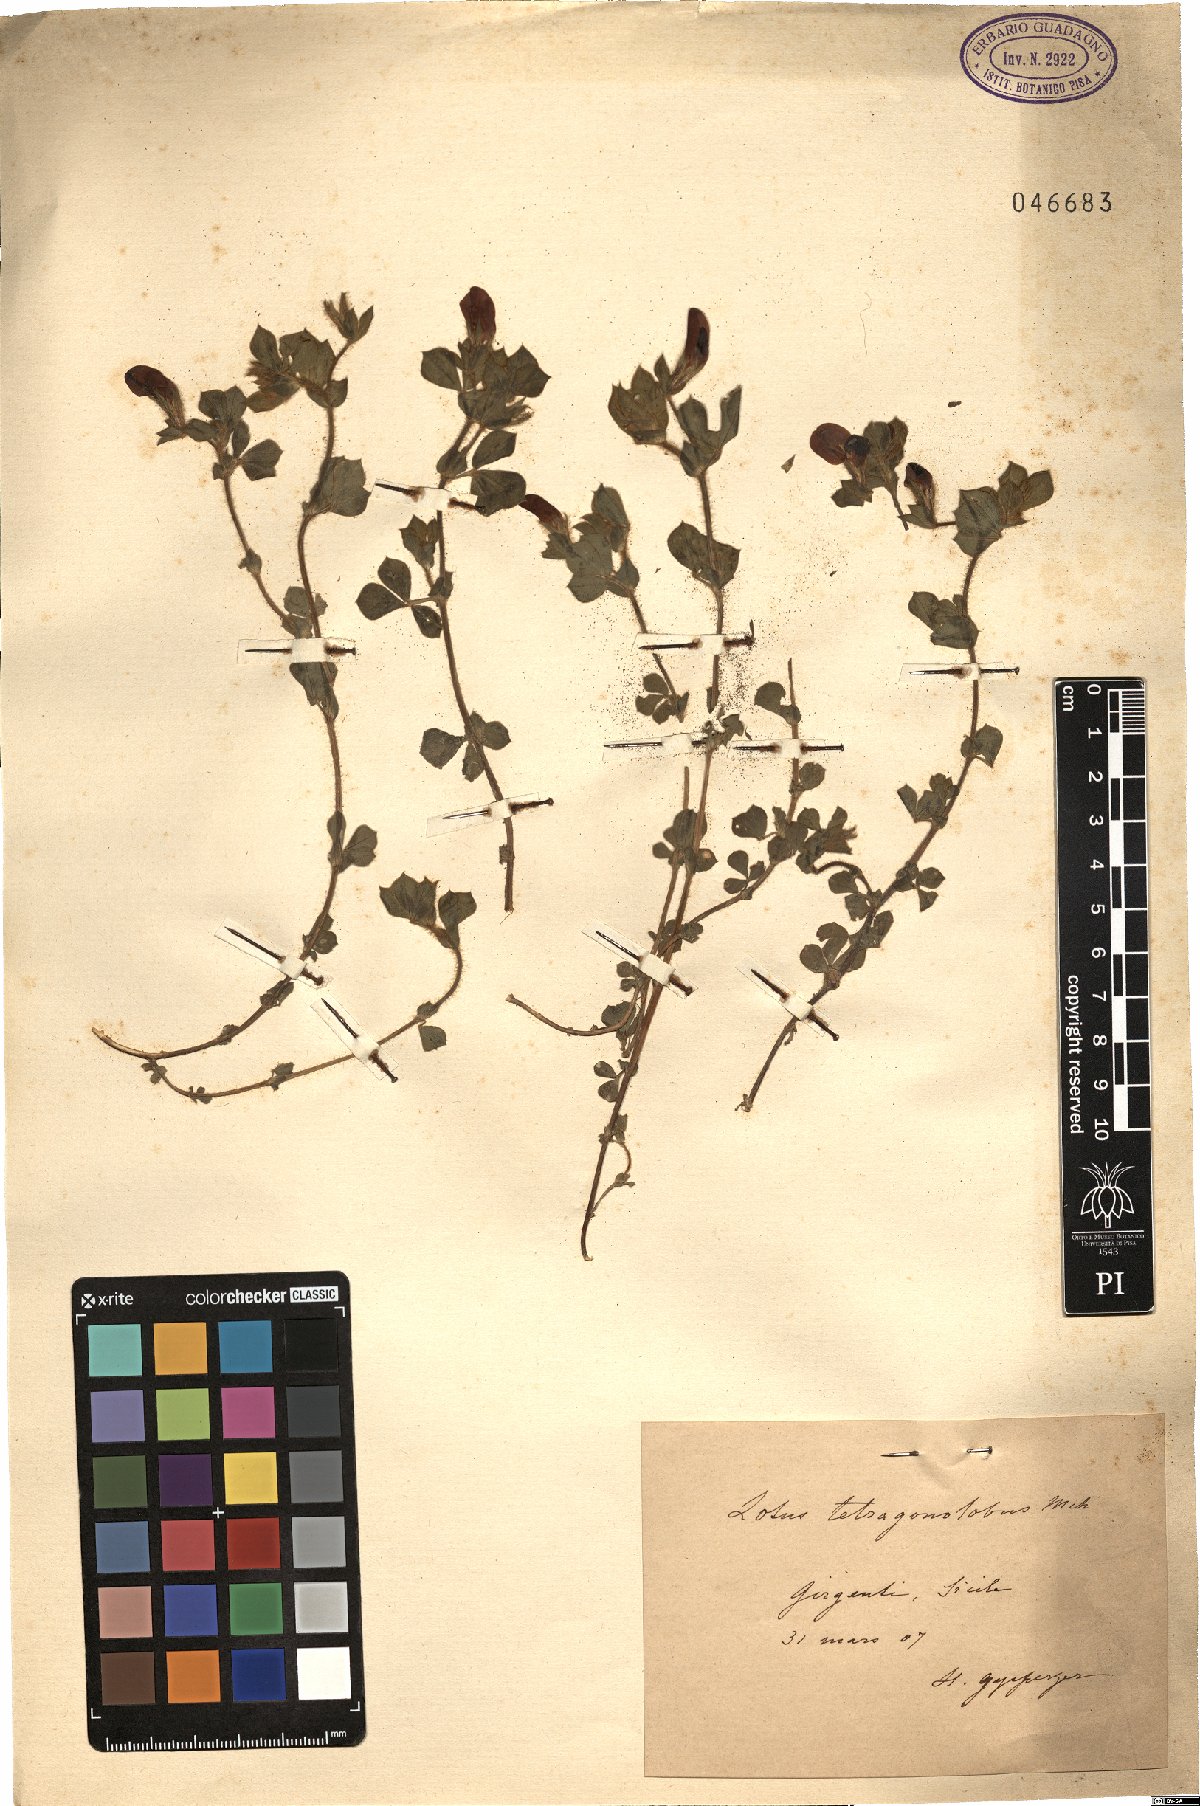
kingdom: Plantae
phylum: Tracheophyta
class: Magnoliopsida
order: Fabales
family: Fabaceae
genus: Lotus
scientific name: Lotus tetragonolobus
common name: Asparagus-pea
